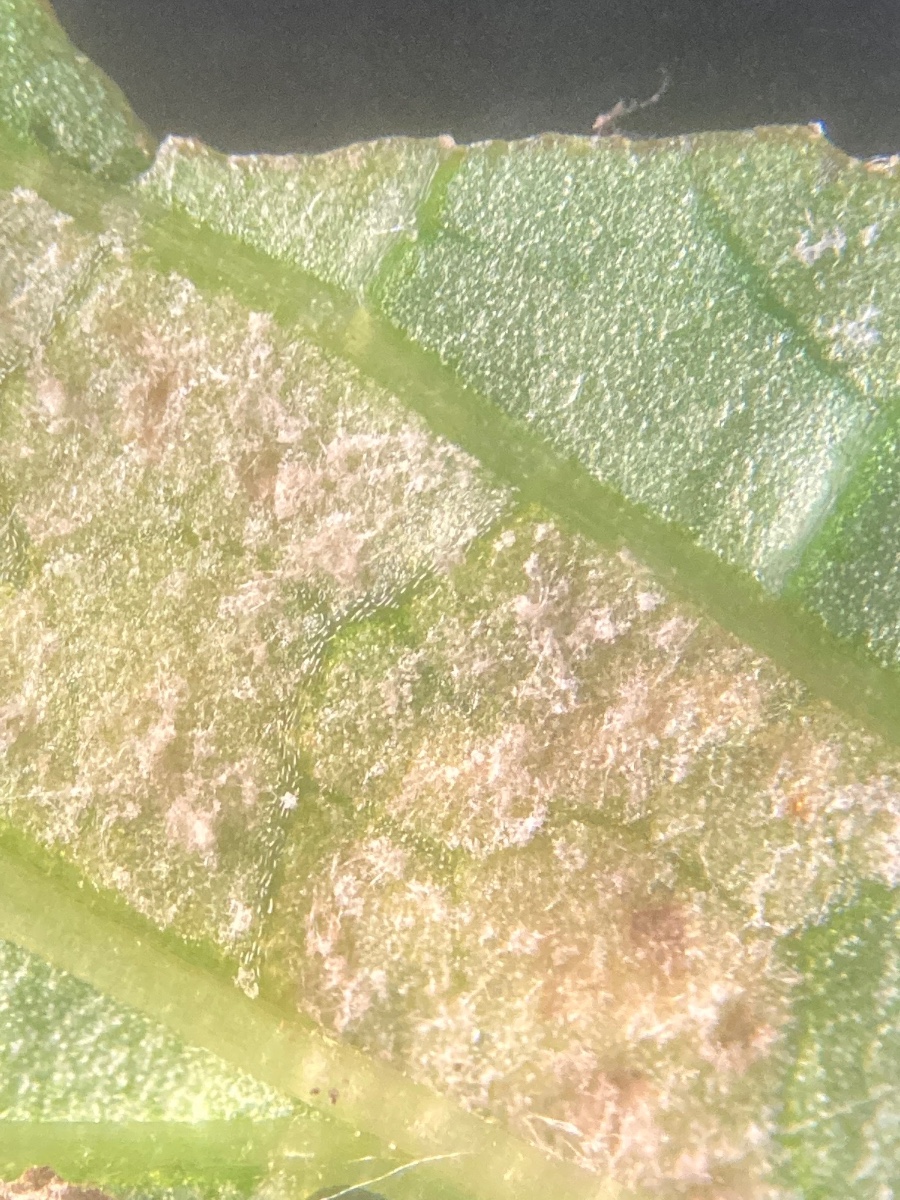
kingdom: Chromista
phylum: Oomycota
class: Peronosporea
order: Peronosporales
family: Peronosporaceae
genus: Peronospora
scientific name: Peronospora sordida
